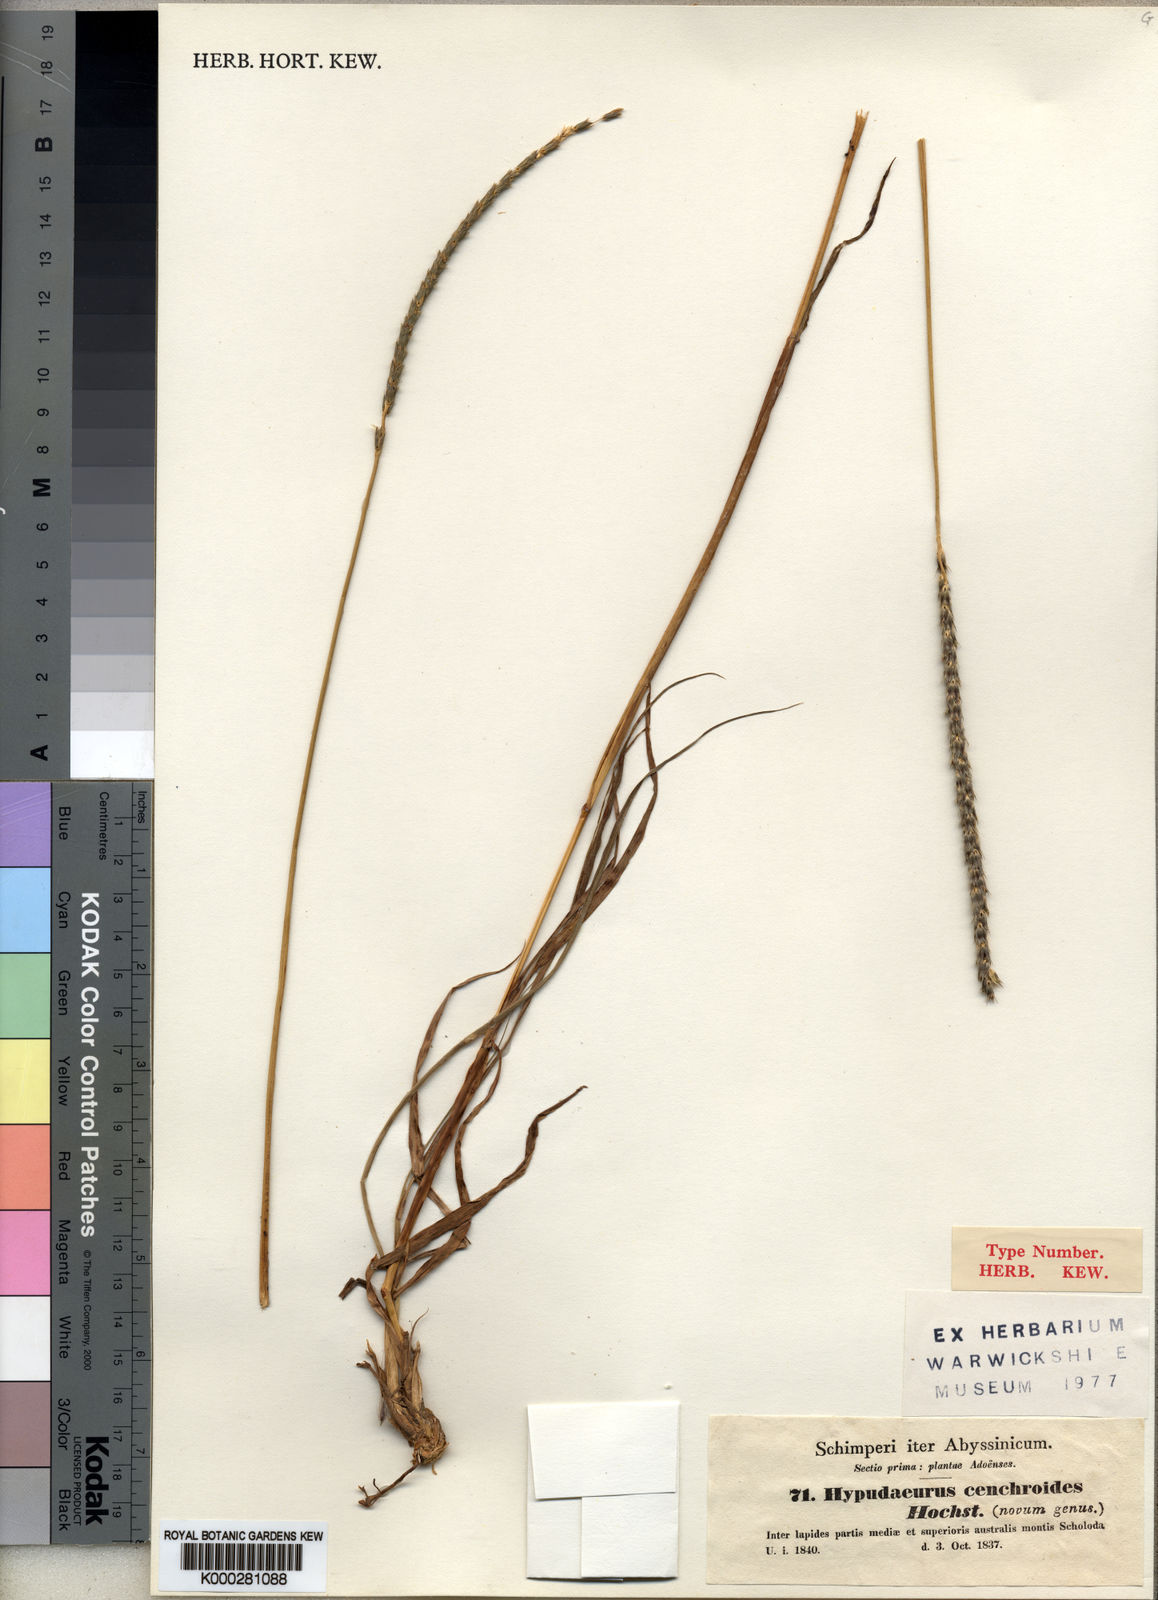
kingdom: Plantae
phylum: Tracheophyta
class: Liliopsida
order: Poales
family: Poaceae
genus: Anthephora
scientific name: Anthephora pubescens
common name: Wool grass
